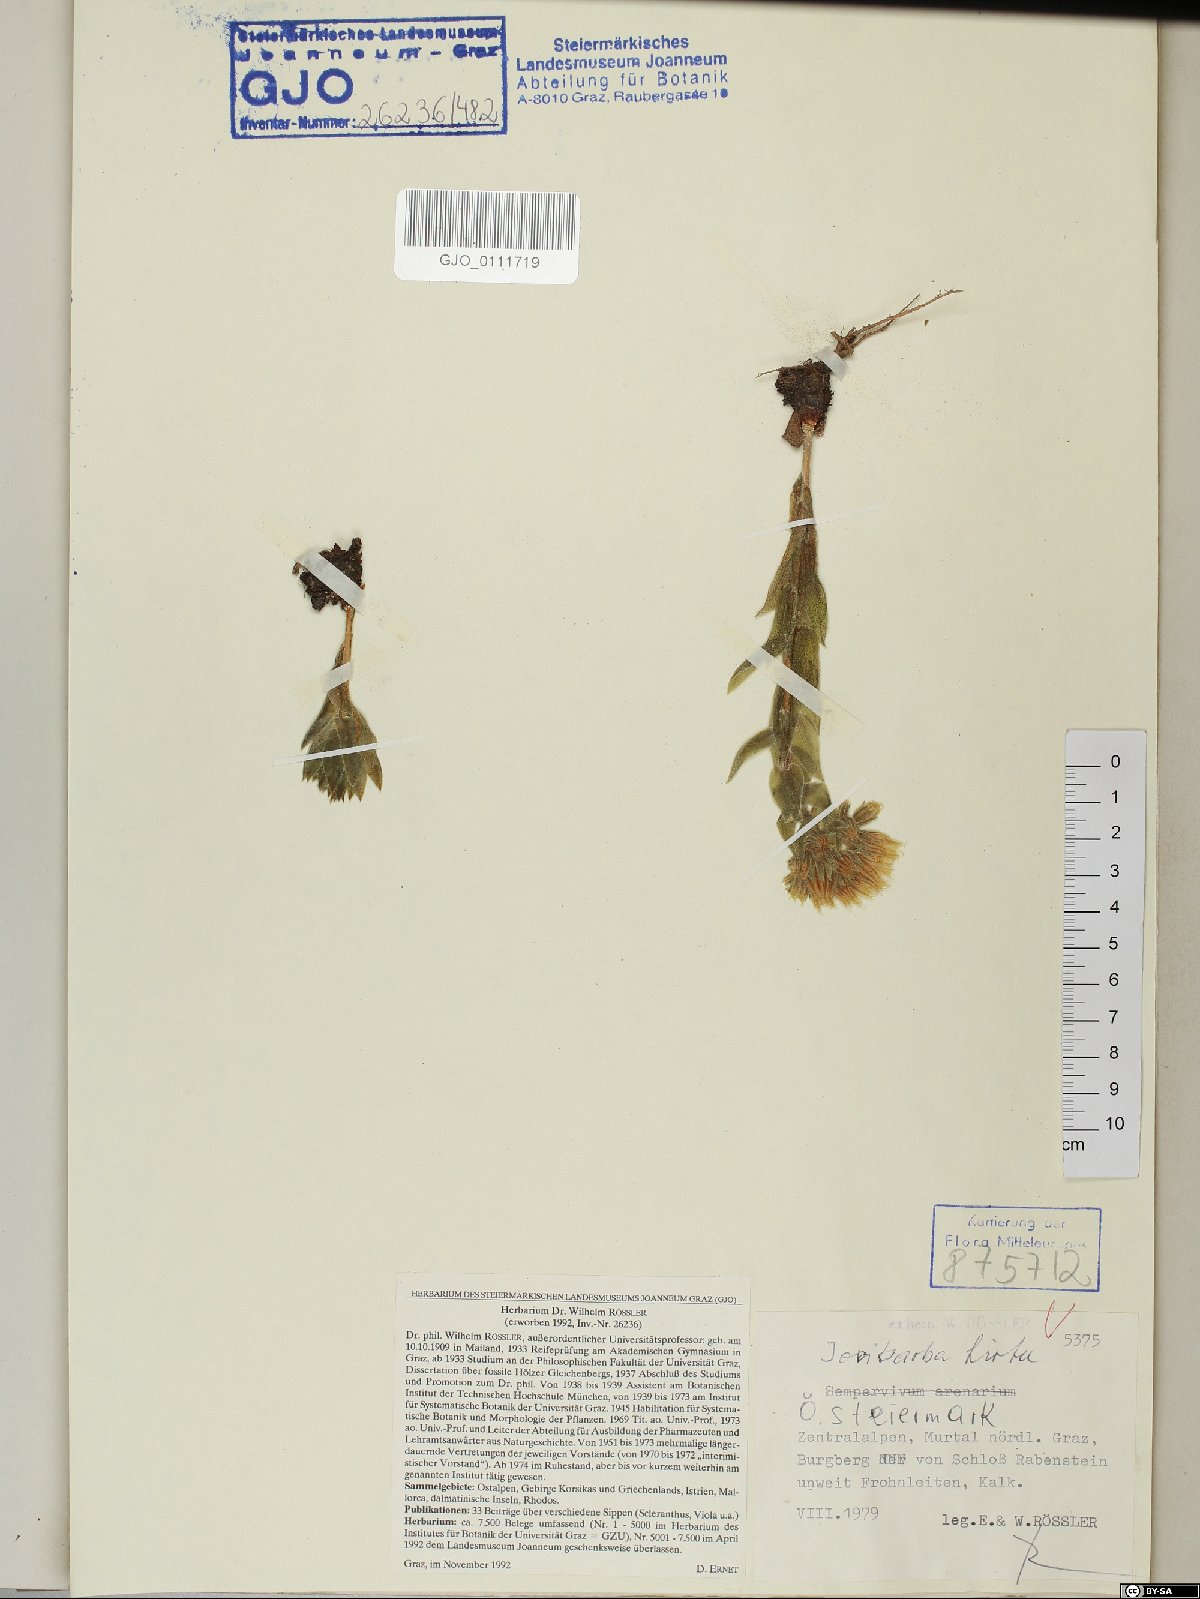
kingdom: Plantae
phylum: Tracheophyta
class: Magnoliopsida
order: Saxifragales
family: Crassulaceae
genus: Sempervivum
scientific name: Sempervivum globiferum
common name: Rolling hen-and-chicks
